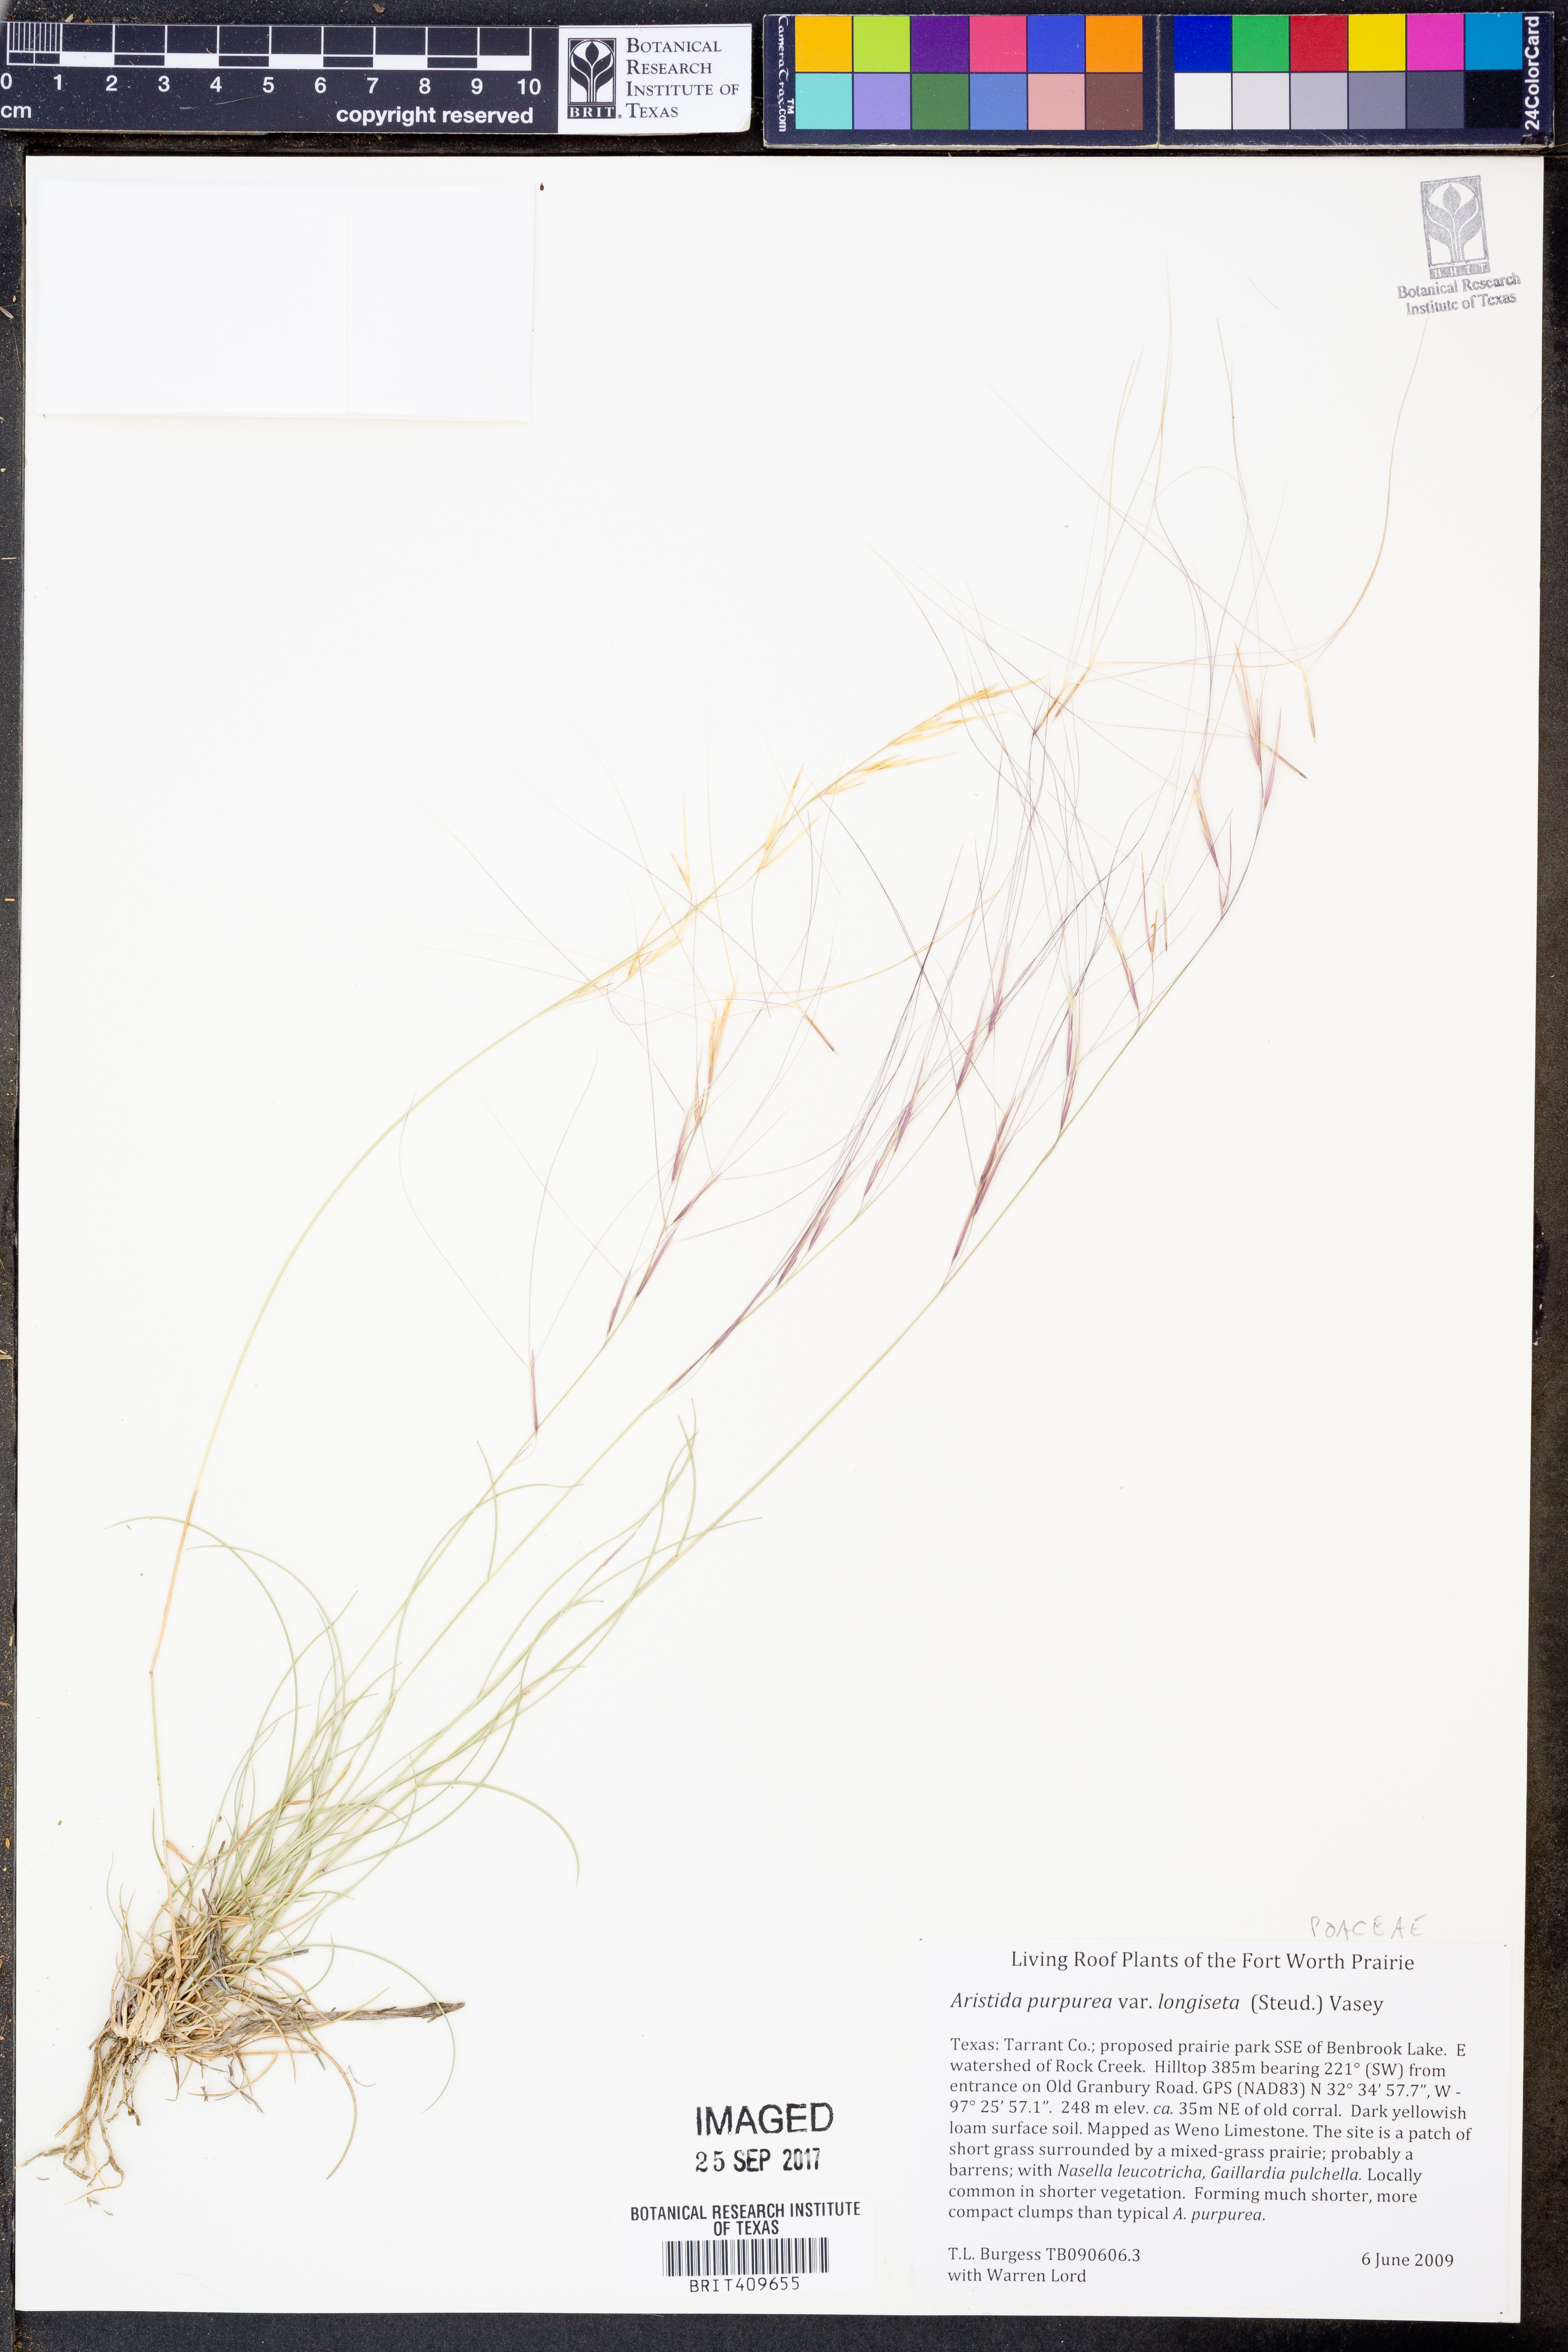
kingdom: Plantae
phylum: Tracheophyta
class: Liliopsida
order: Poales
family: Poaceae
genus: Aristida
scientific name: Aristida longiseta
